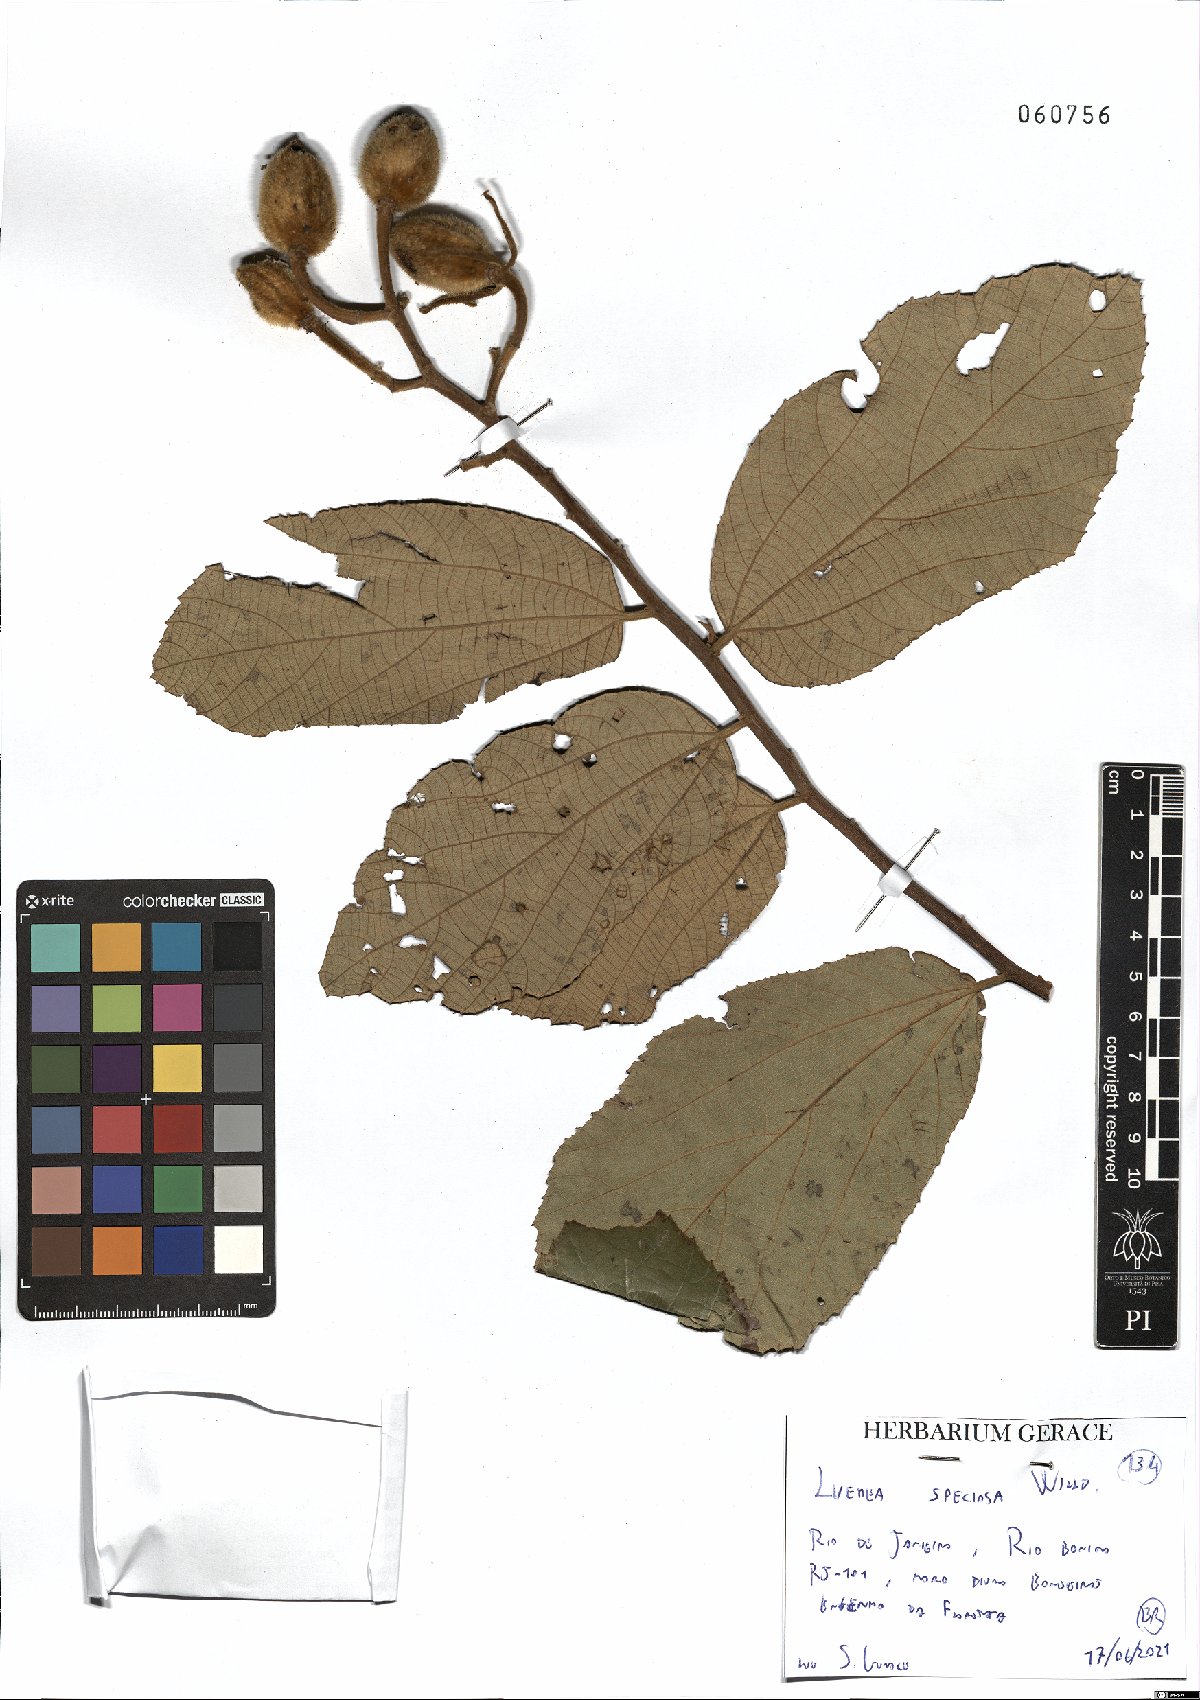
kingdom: Plantae
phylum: Tracheophyta
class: Magnoliopsida
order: Malvales
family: Malvaceae
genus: Luehea
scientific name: Luehea speciosa
